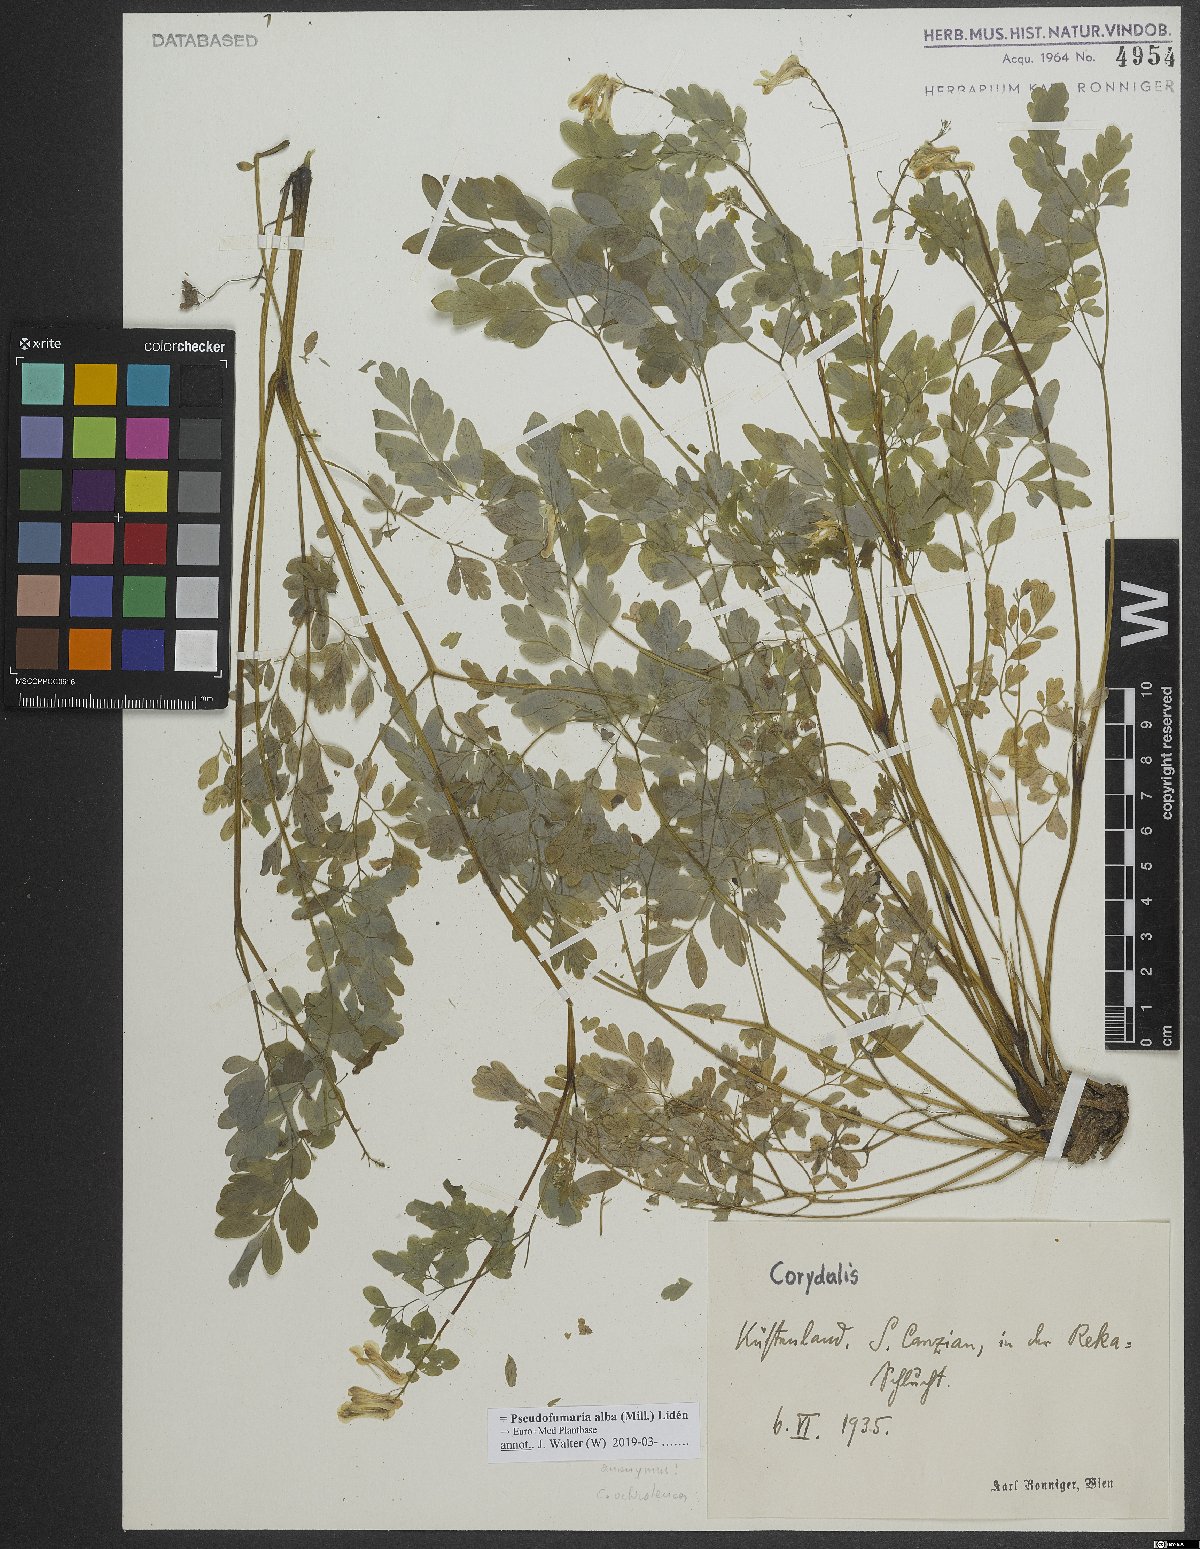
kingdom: Plantae
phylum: Tracheophyta
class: Magnoliopsida
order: Ranunculales
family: Papaveraceae
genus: Pseudofumaria
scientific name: Pseudofumaria alba
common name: Pale corydalis
